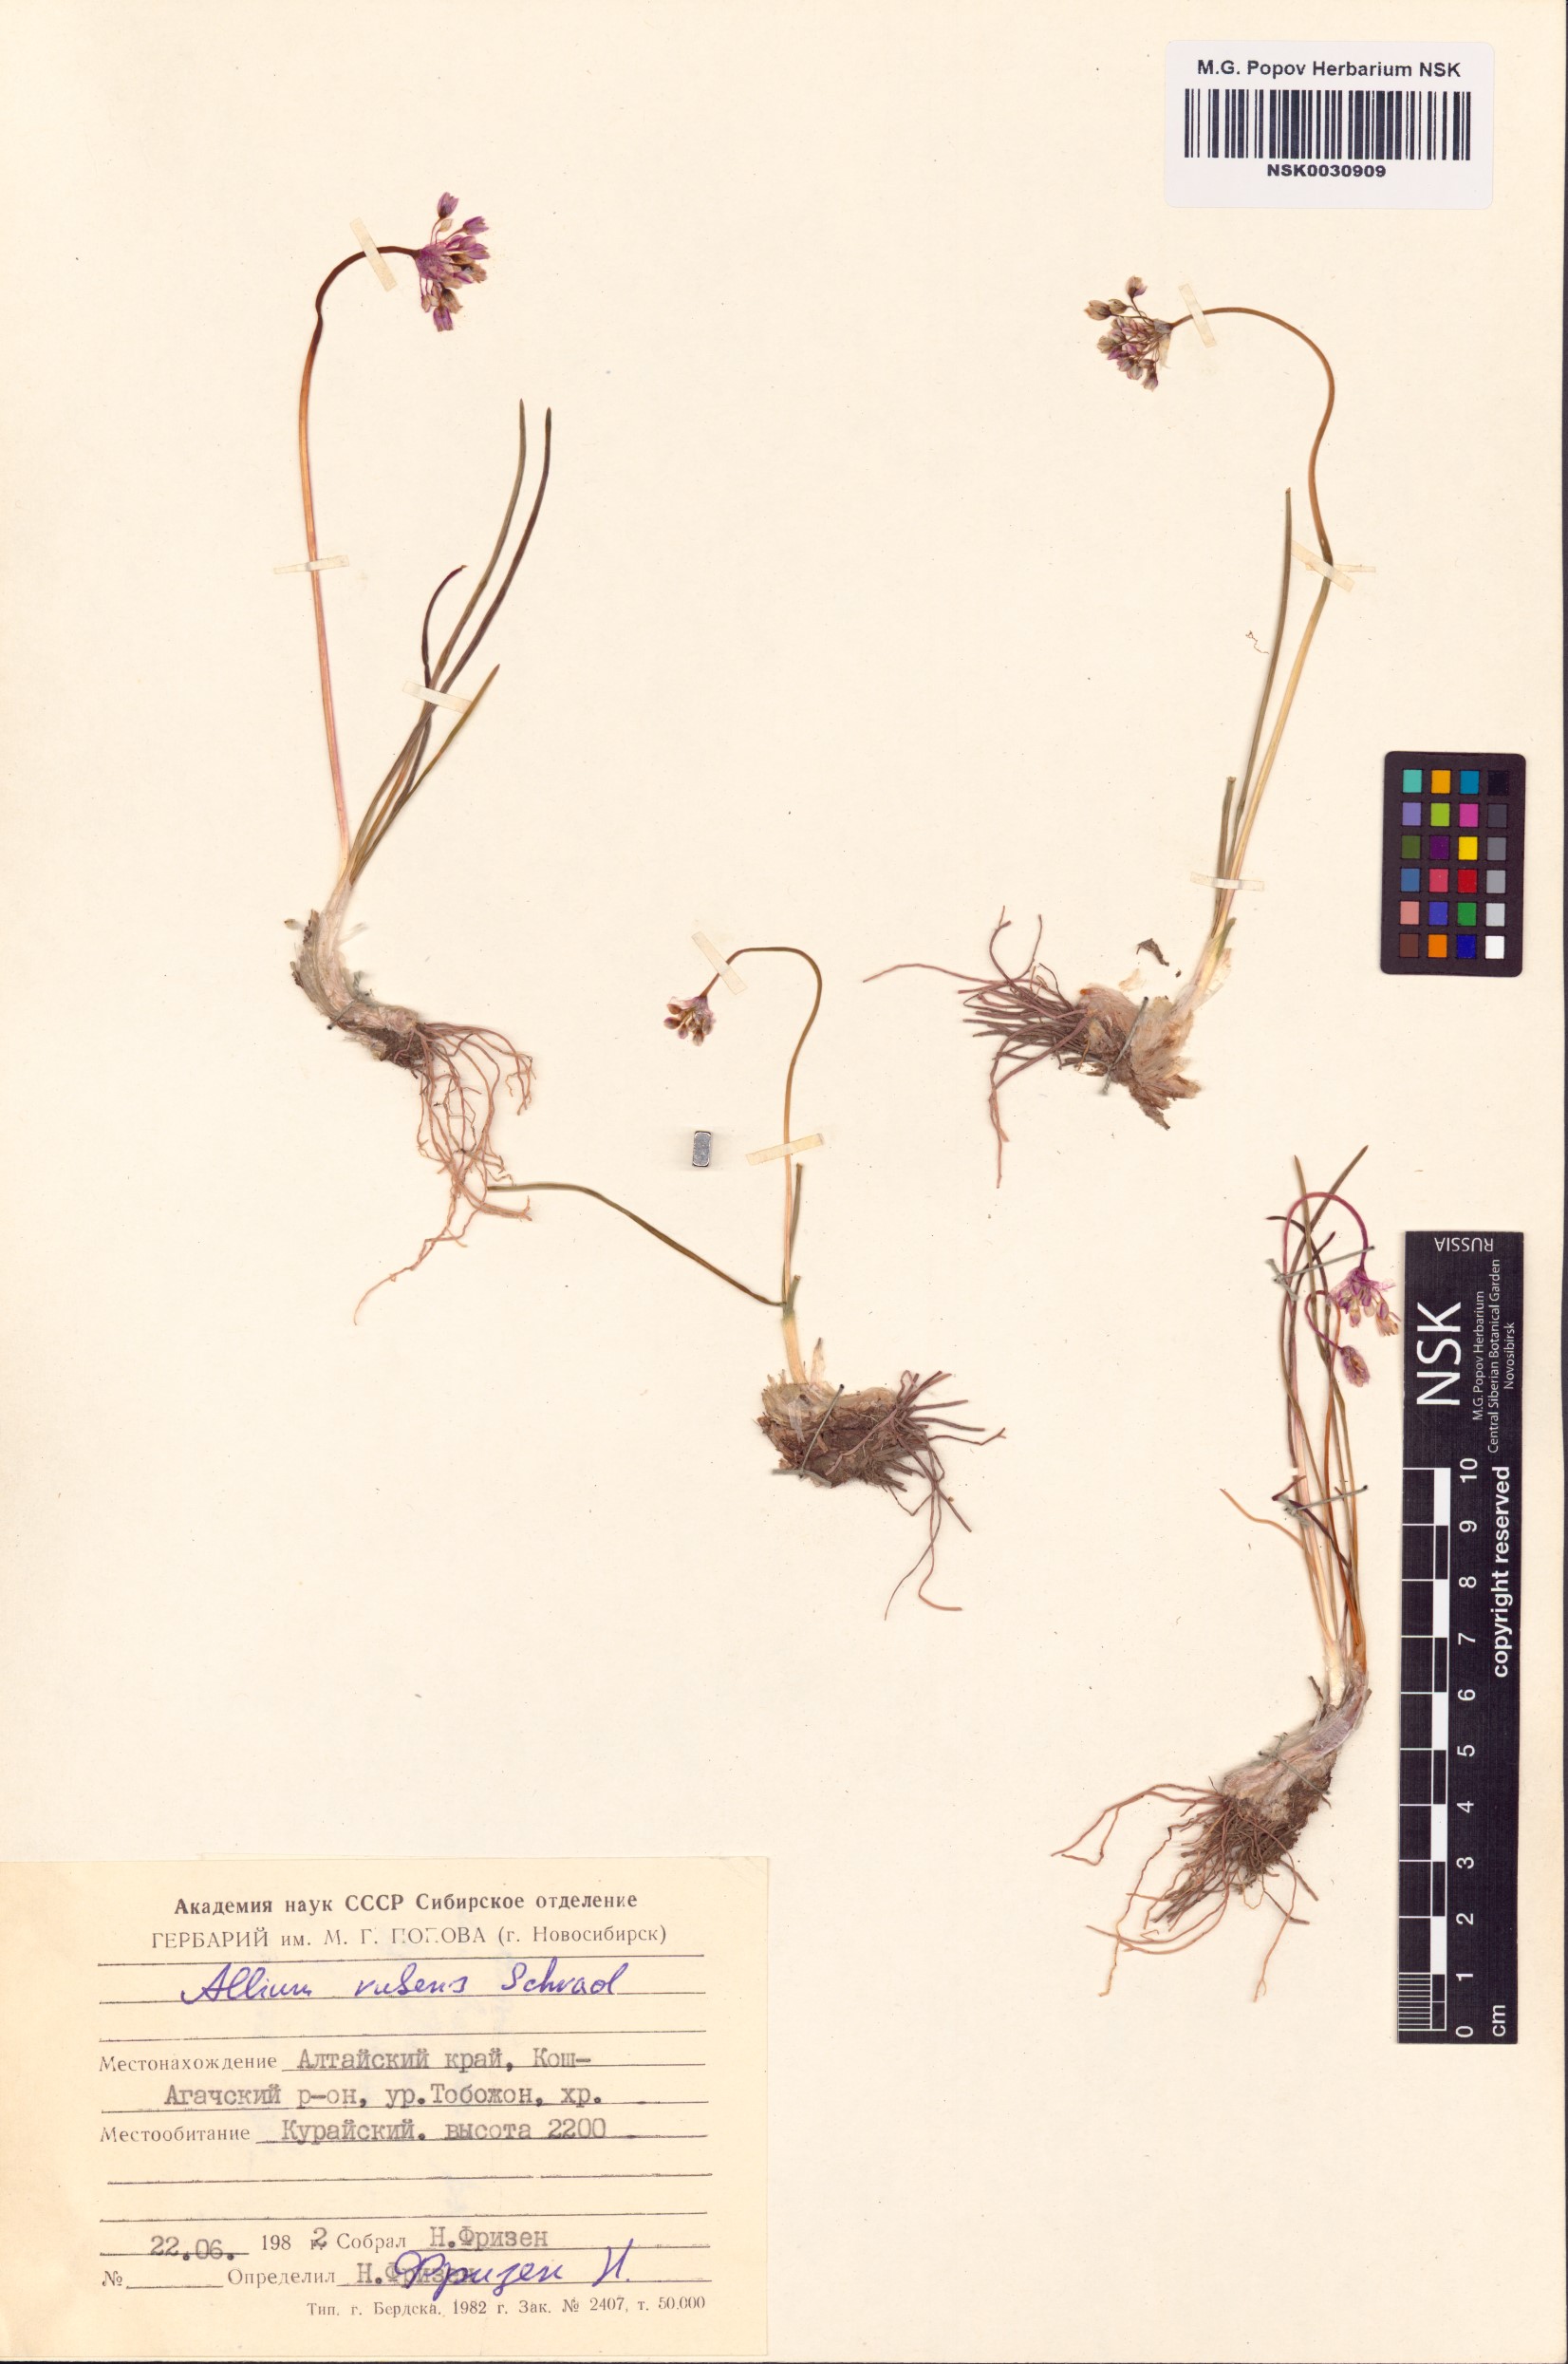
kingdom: Plantae
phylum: Tracheophyta
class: Liliopsida
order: Asparagales
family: Amaryllidaceae
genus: Allium
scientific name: Allium rubens
